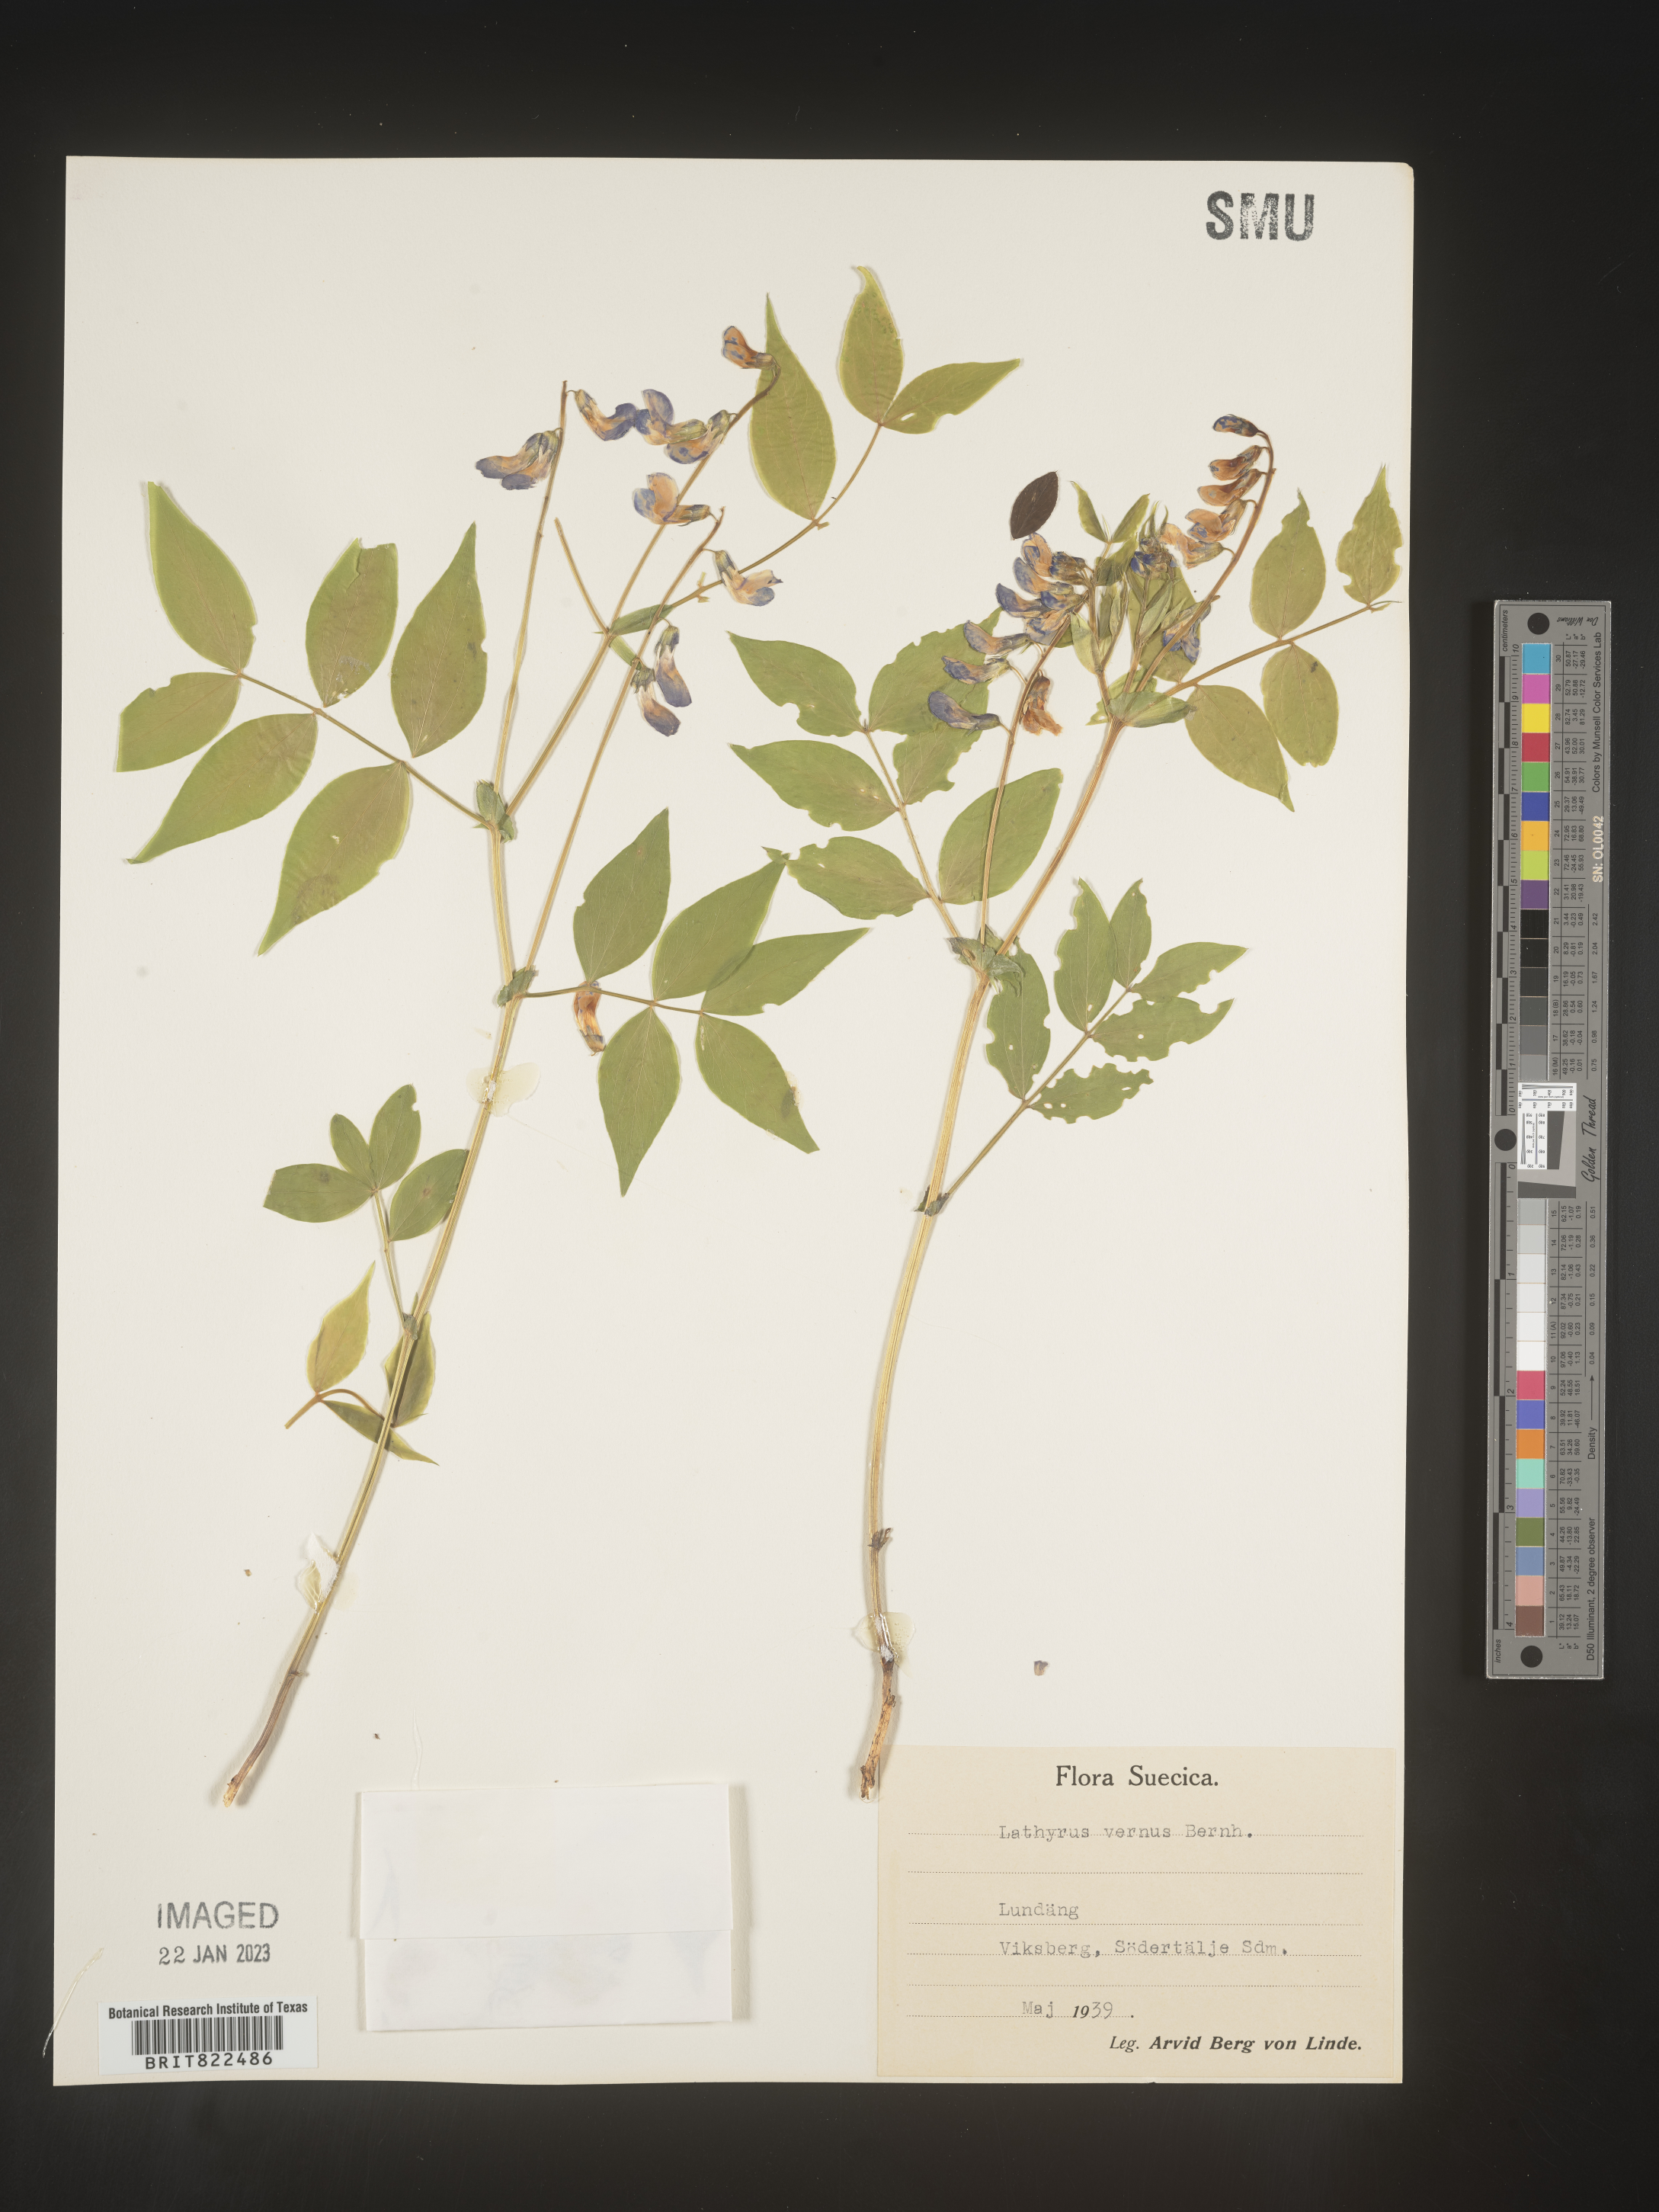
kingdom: Plantae
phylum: Tracheophyta
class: Magnoliopsida
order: Fabales
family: Fabaceae
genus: Lathyrus
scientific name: Lathyrus
